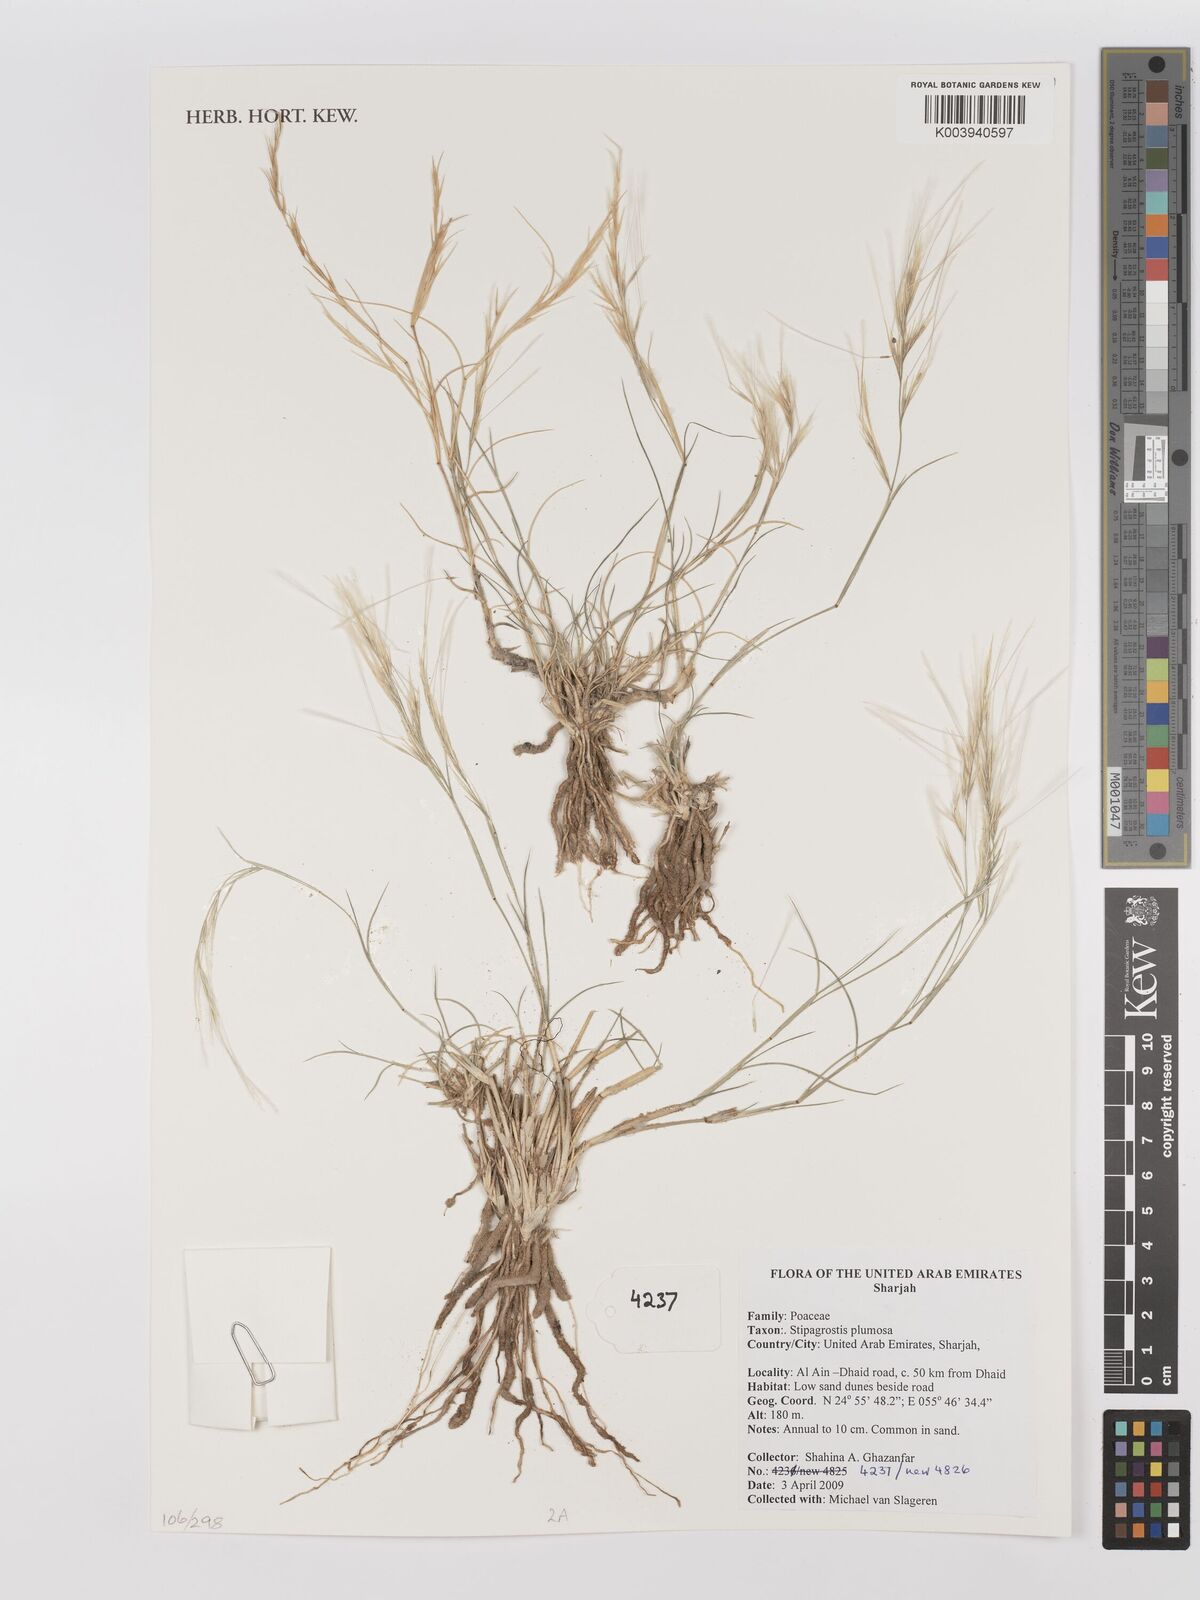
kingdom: Plantae
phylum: Tracheophyta
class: Liliopsida
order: Poales
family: Poaceae
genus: Stipagrostis
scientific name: Stipagrostis plumosa
